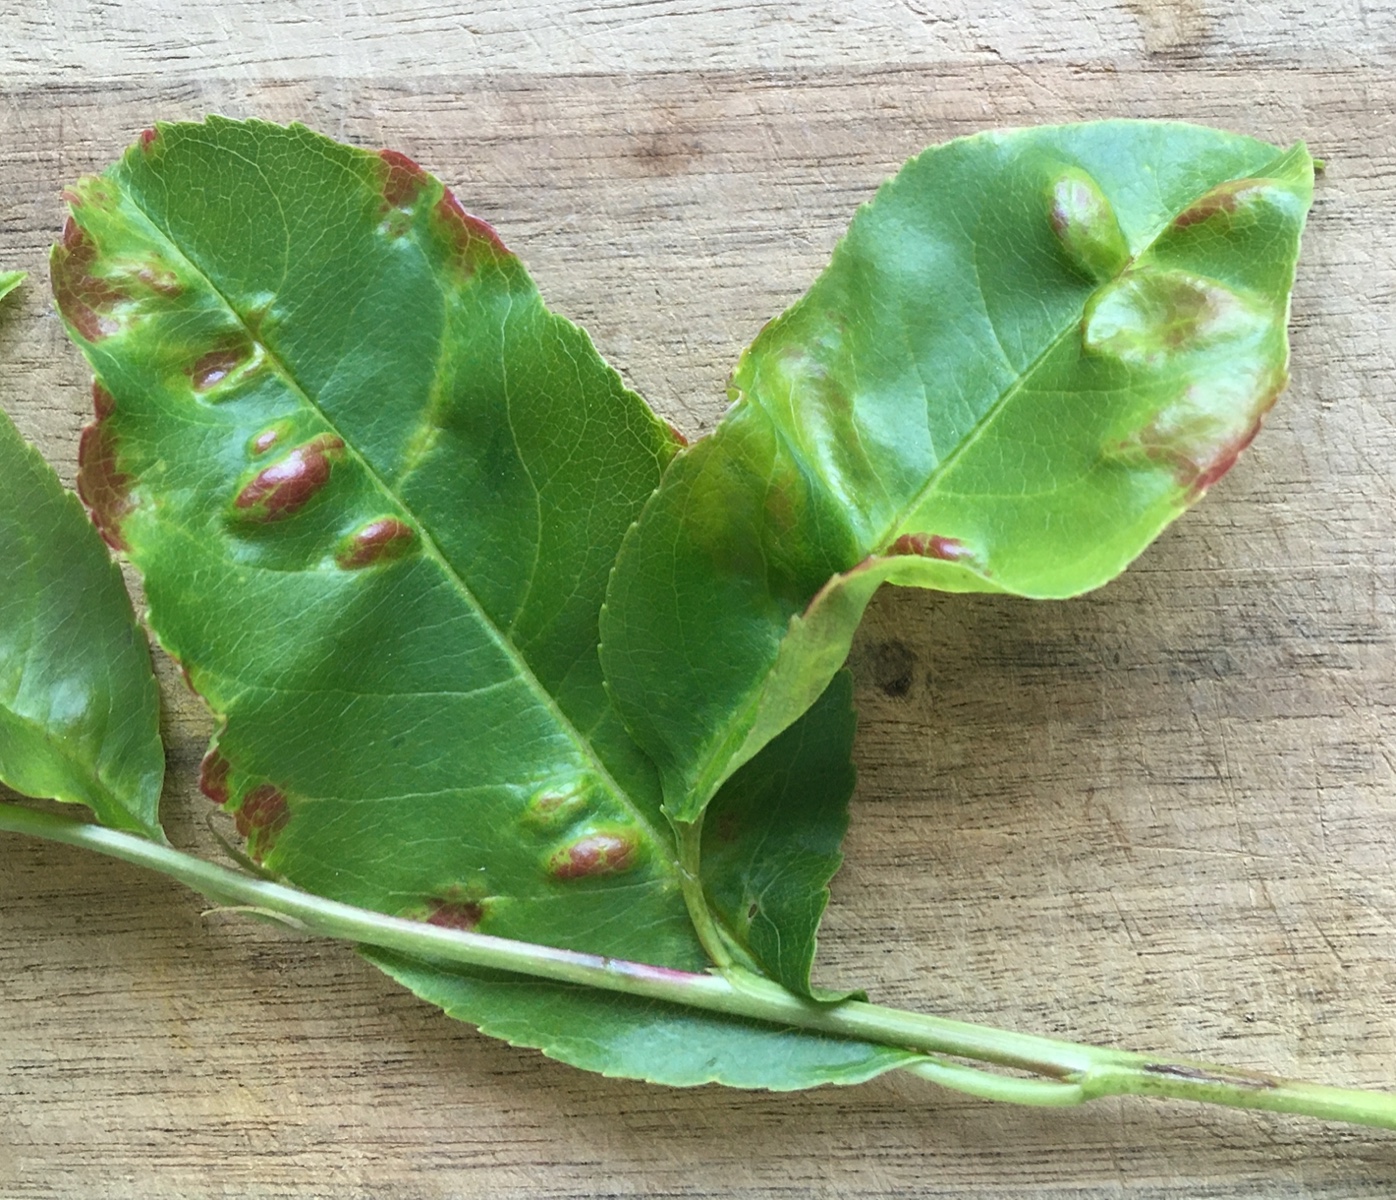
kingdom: Fungi
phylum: Ascomycota
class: Taphrinomycetes
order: Taphrinales
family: Taphrinaceae
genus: Taphrina
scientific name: Taphrina farlowii
